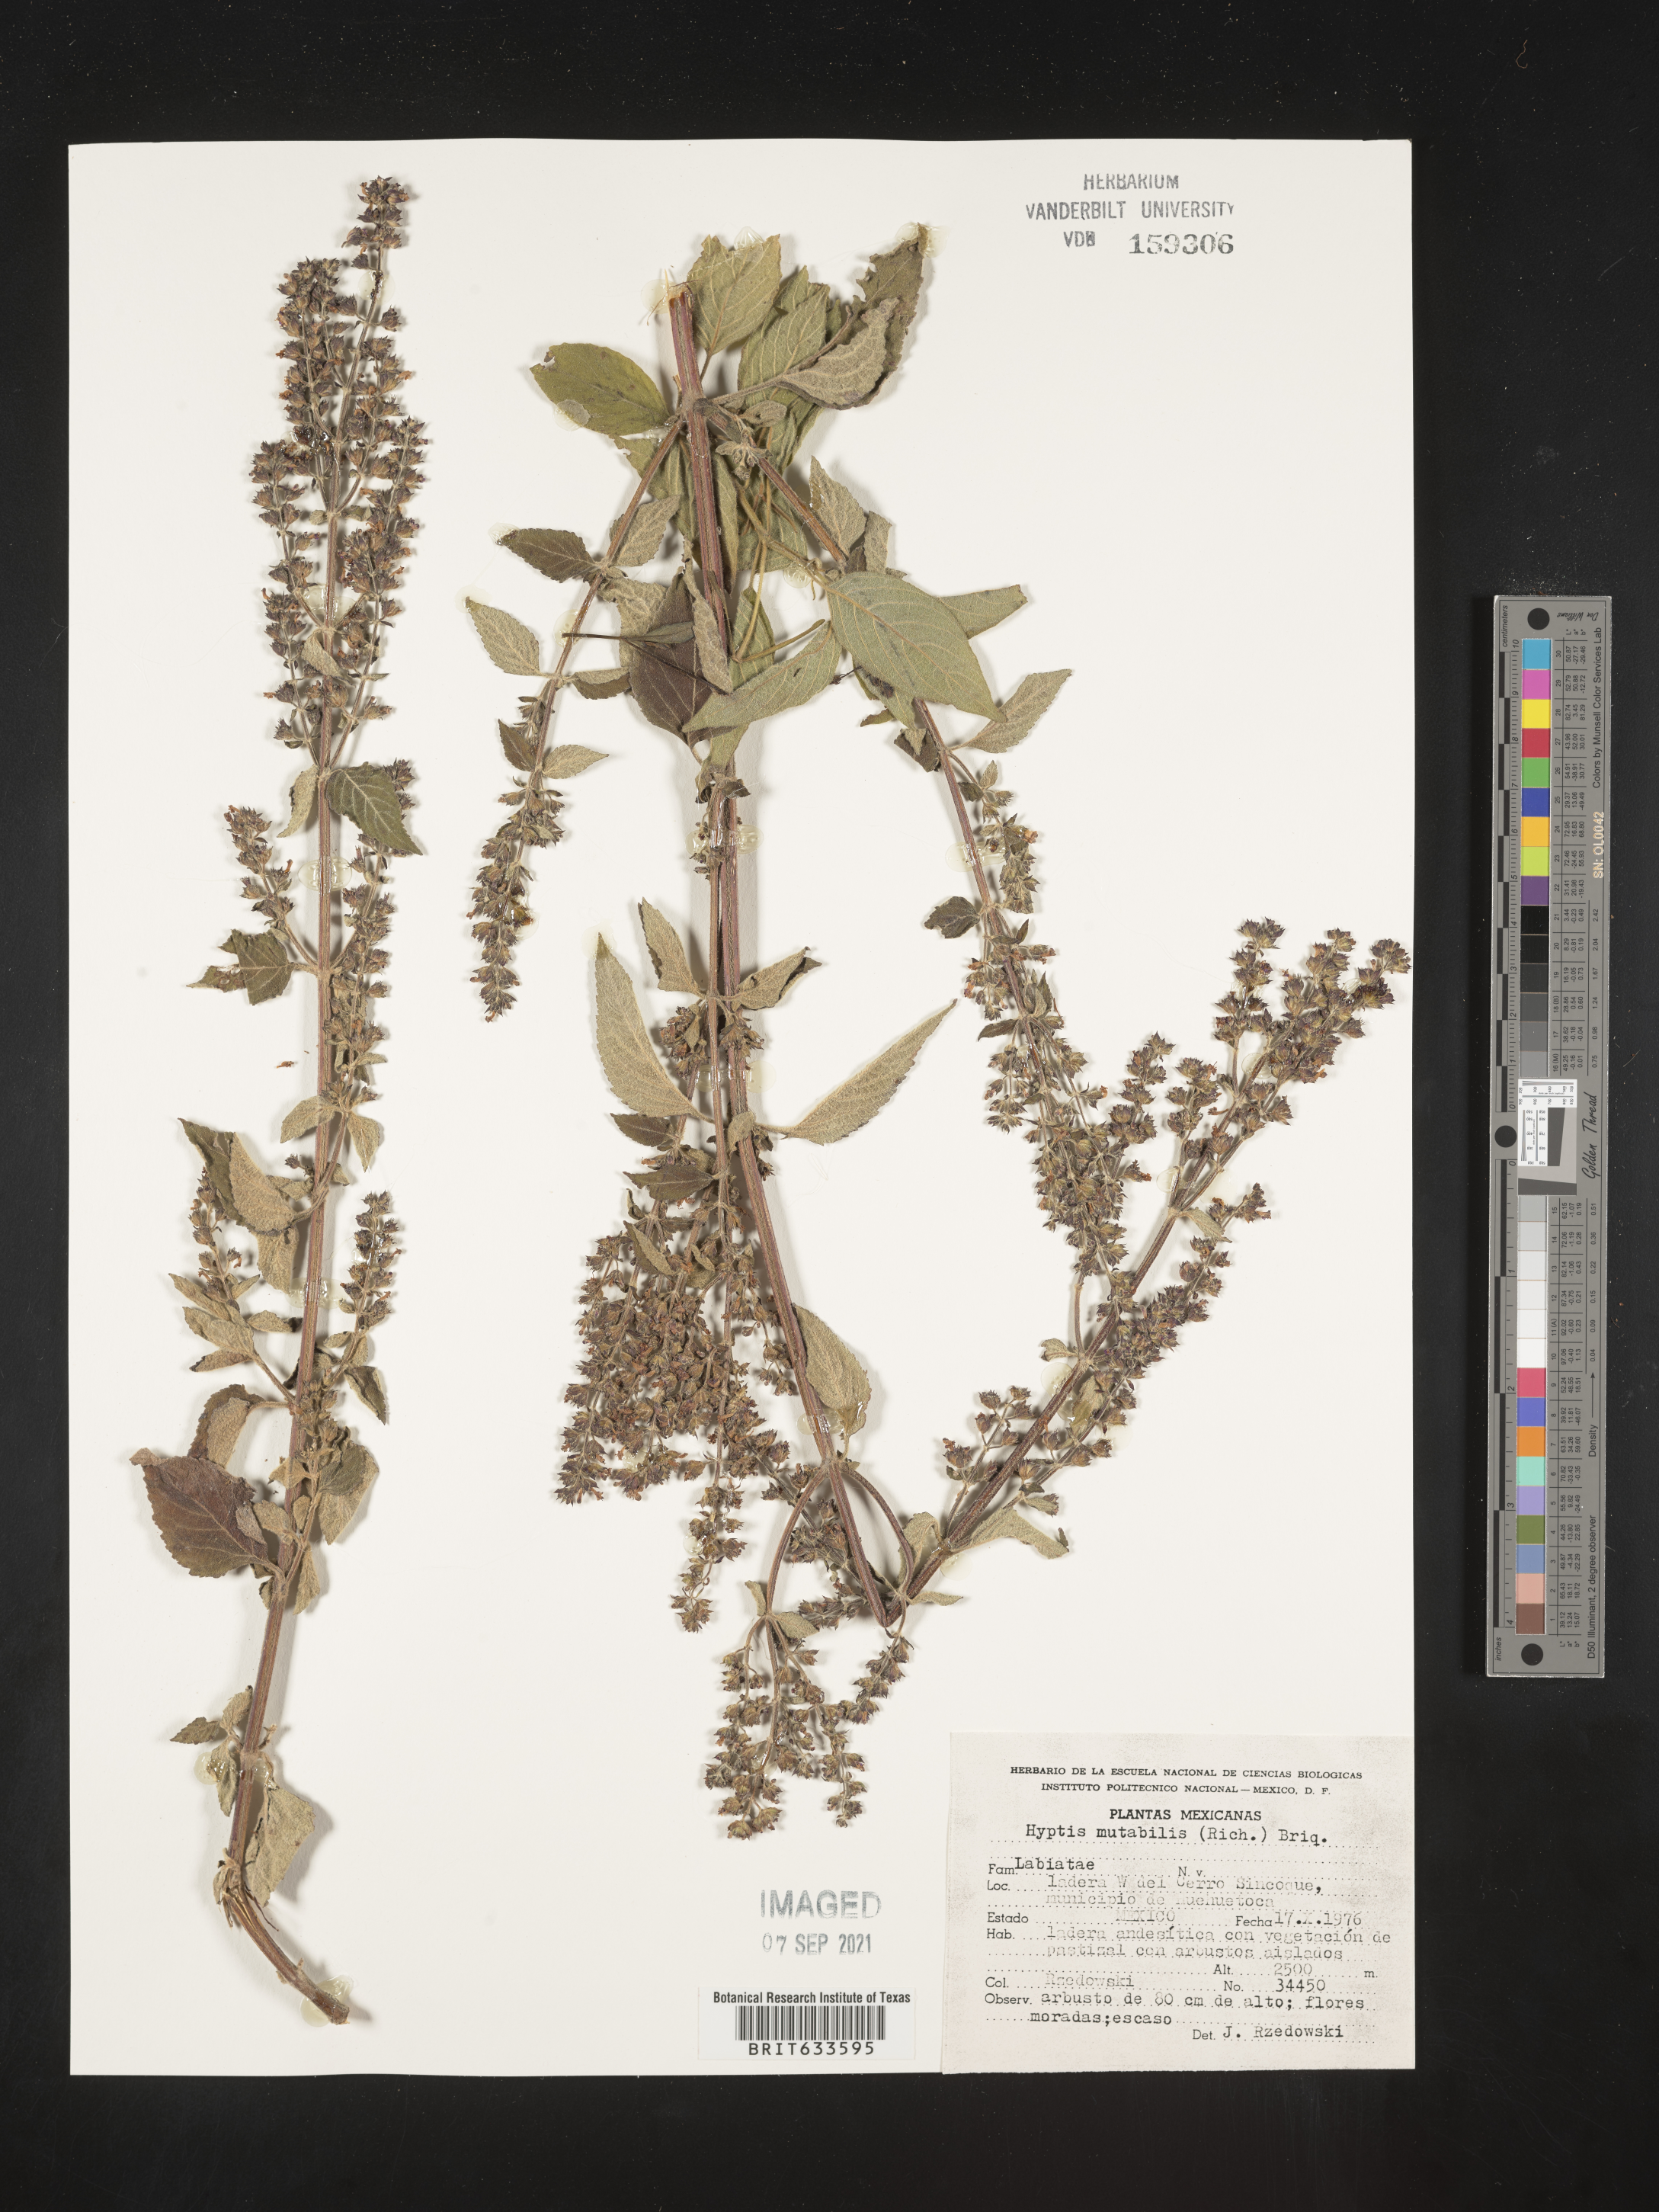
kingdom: Plantae
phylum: Tracheophyta
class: Magnoliopsida
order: Lamiales
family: Lamiaceae
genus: Hyptis
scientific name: Hyptis
